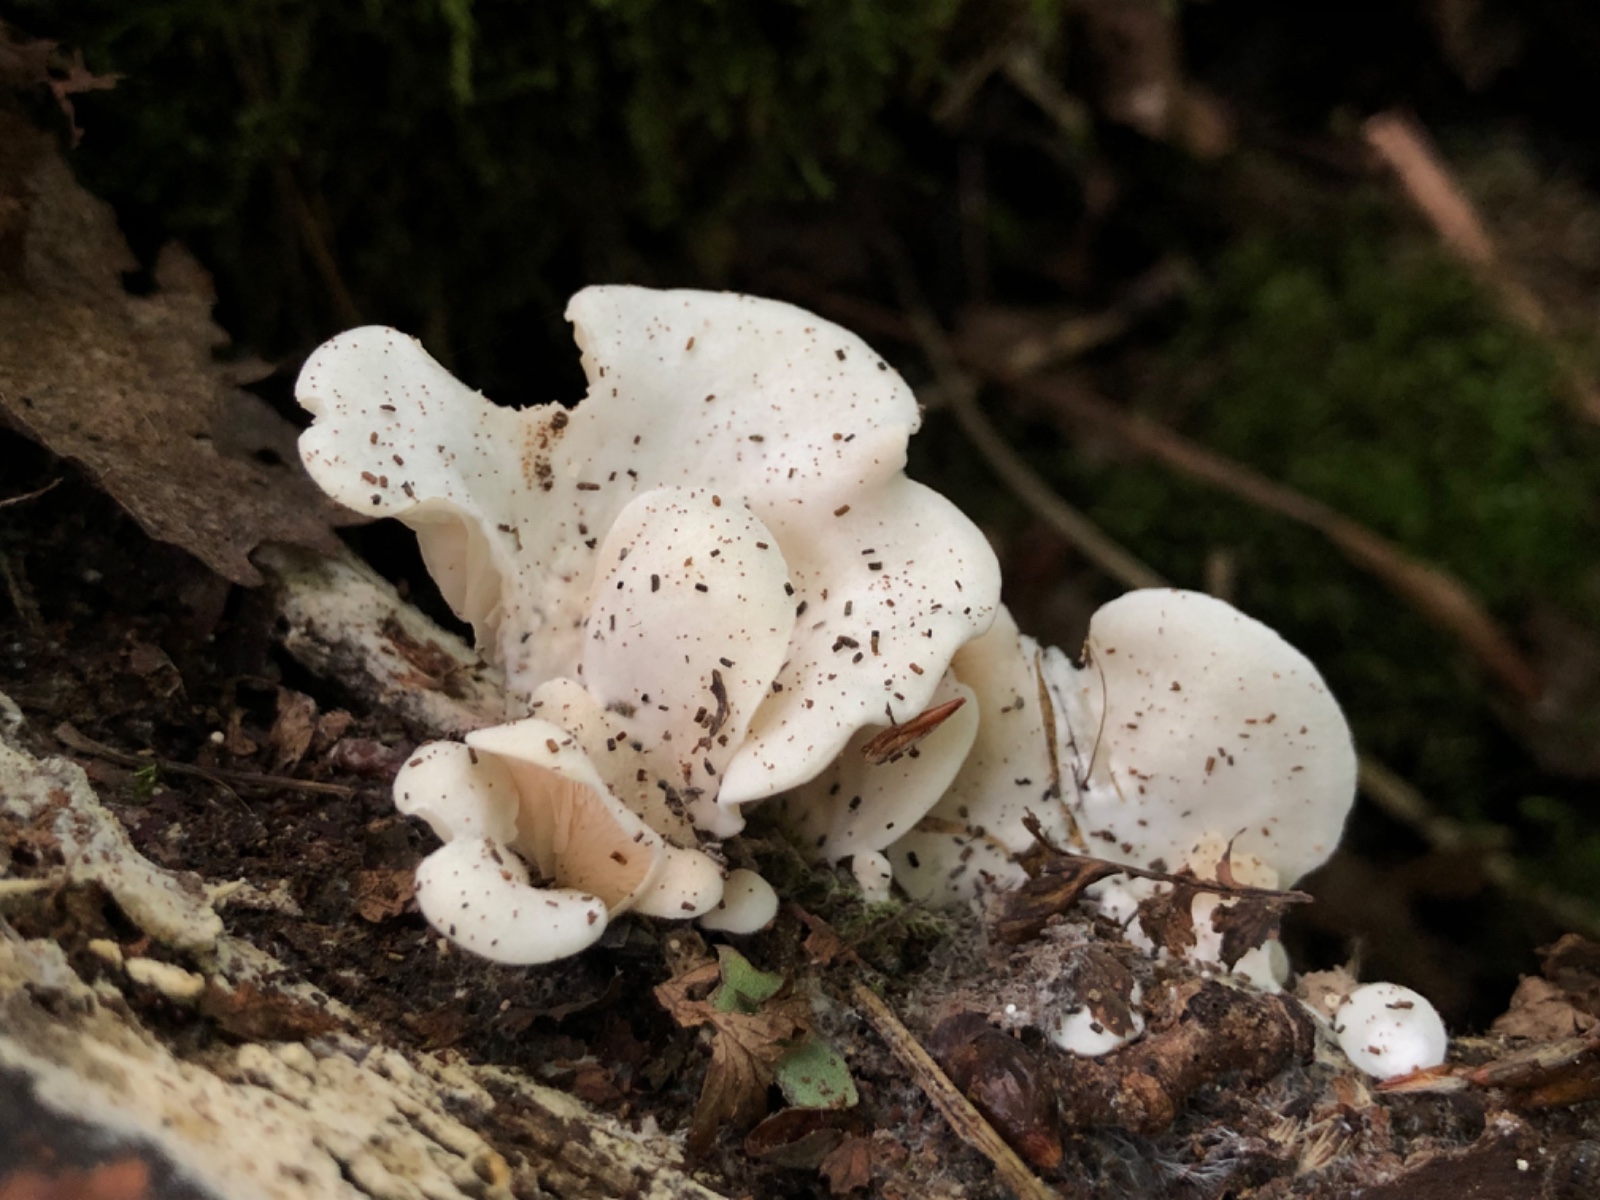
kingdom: Fungi
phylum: Basidiomycota
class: Agaricomycetes
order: Agaricales
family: Entolomataceae
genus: Clitopilus
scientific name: Clitopilus
